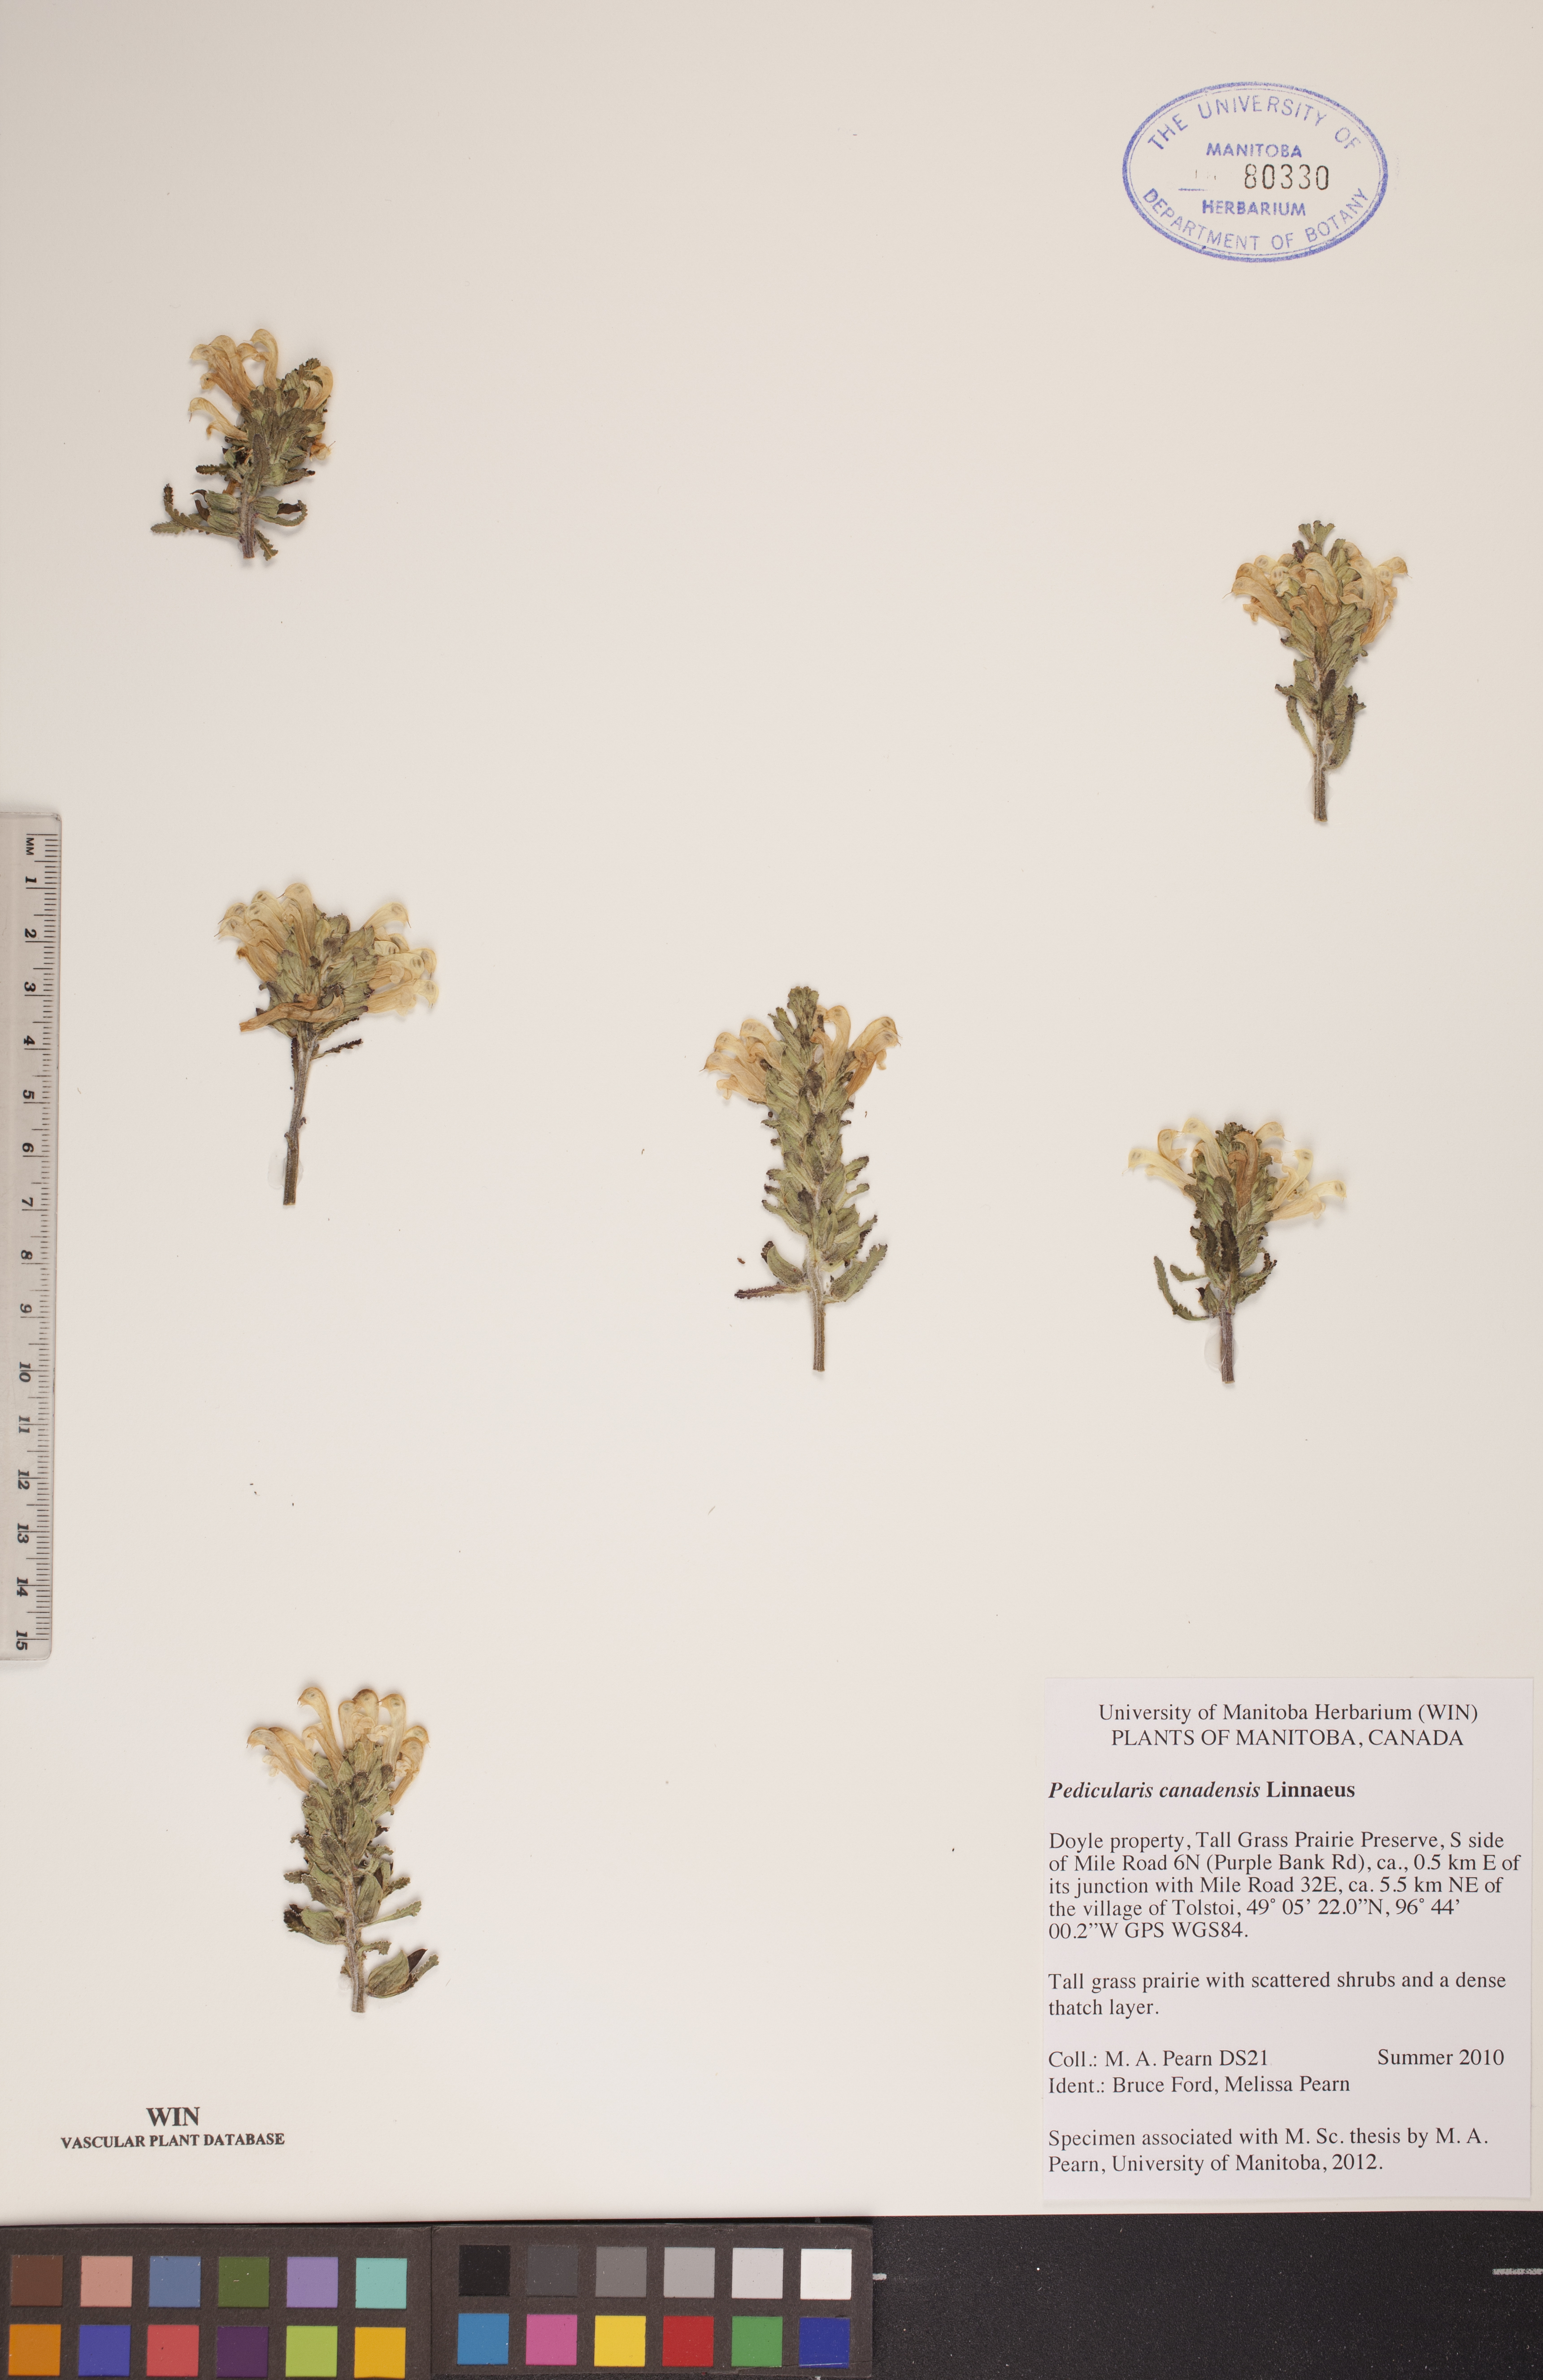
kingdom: Plantae
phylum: Tracheophyta
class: Magnoliopsida
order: Lamiales
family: Orobanchaceae
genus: Pedicularis
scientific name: Pedicularis canadensis
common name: Early lousewort
